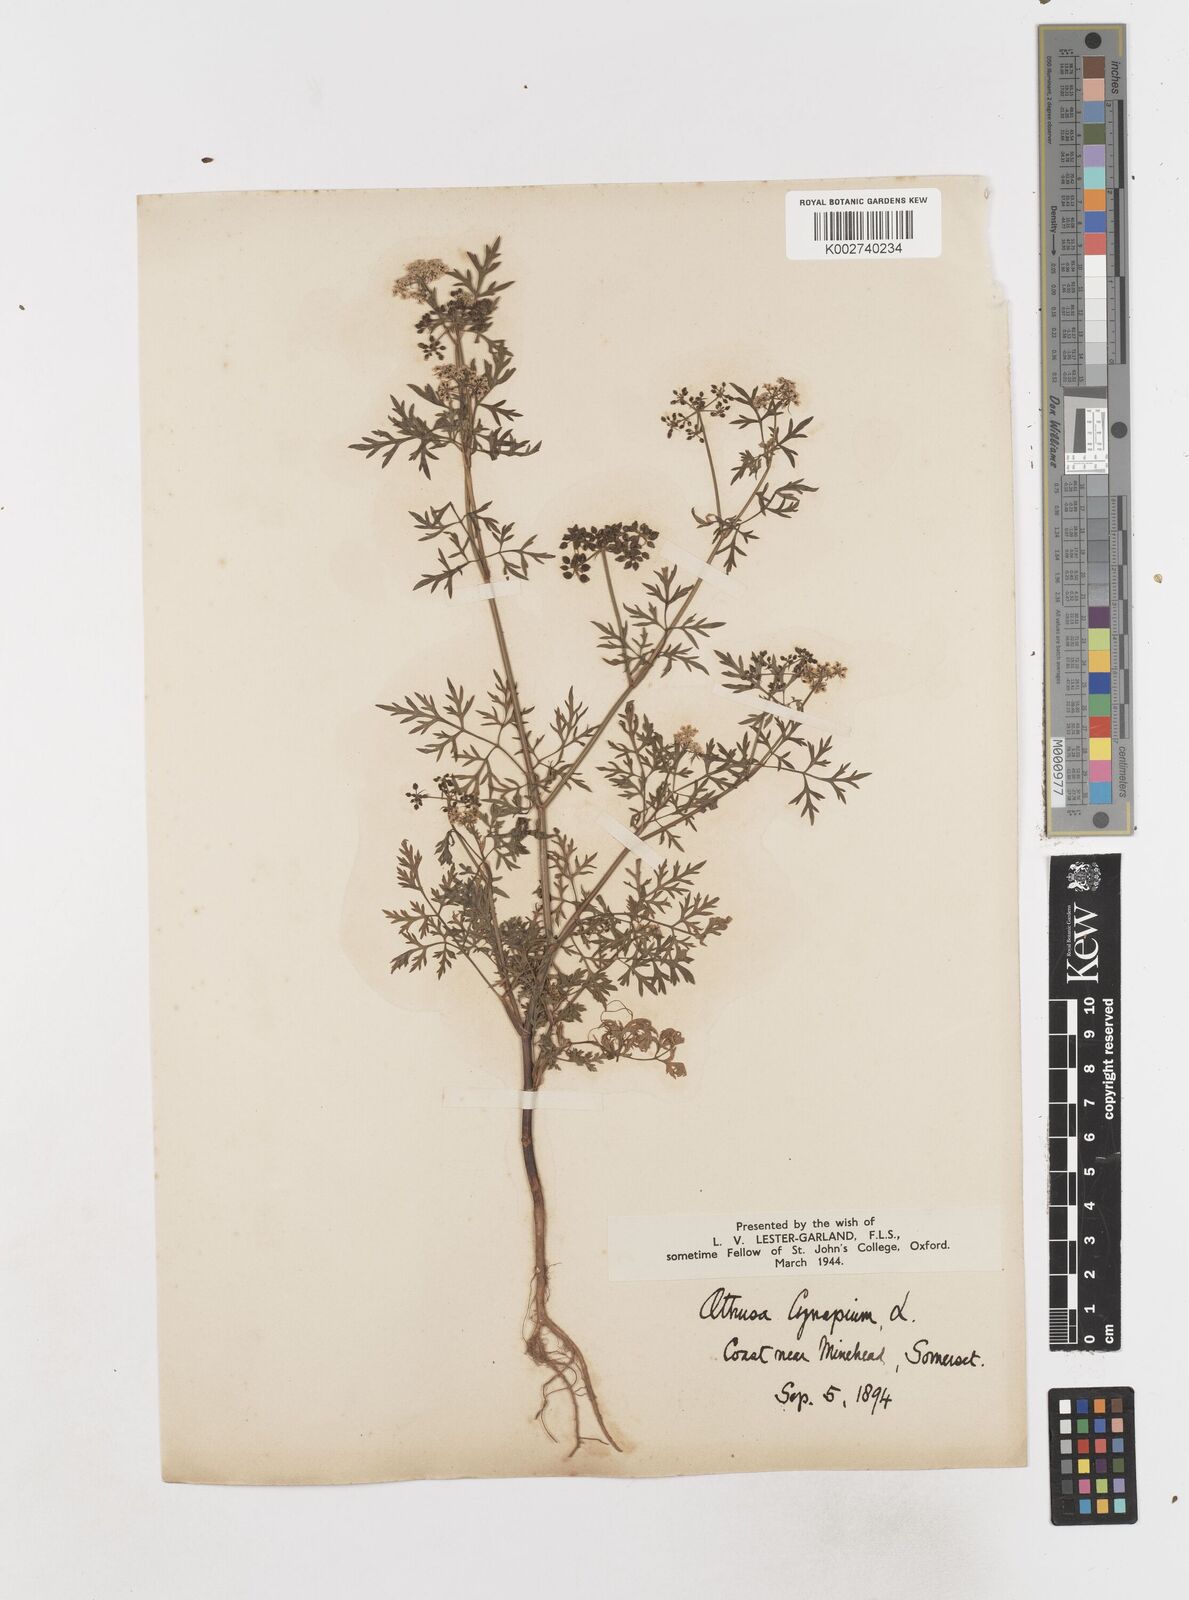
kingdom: Plantae
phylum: Tracheophyta
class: Magnoliopsida
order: Apiales
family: Apiaceae
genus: Aethusa
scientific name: Aethusa cynapium
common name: Fool's parsley
